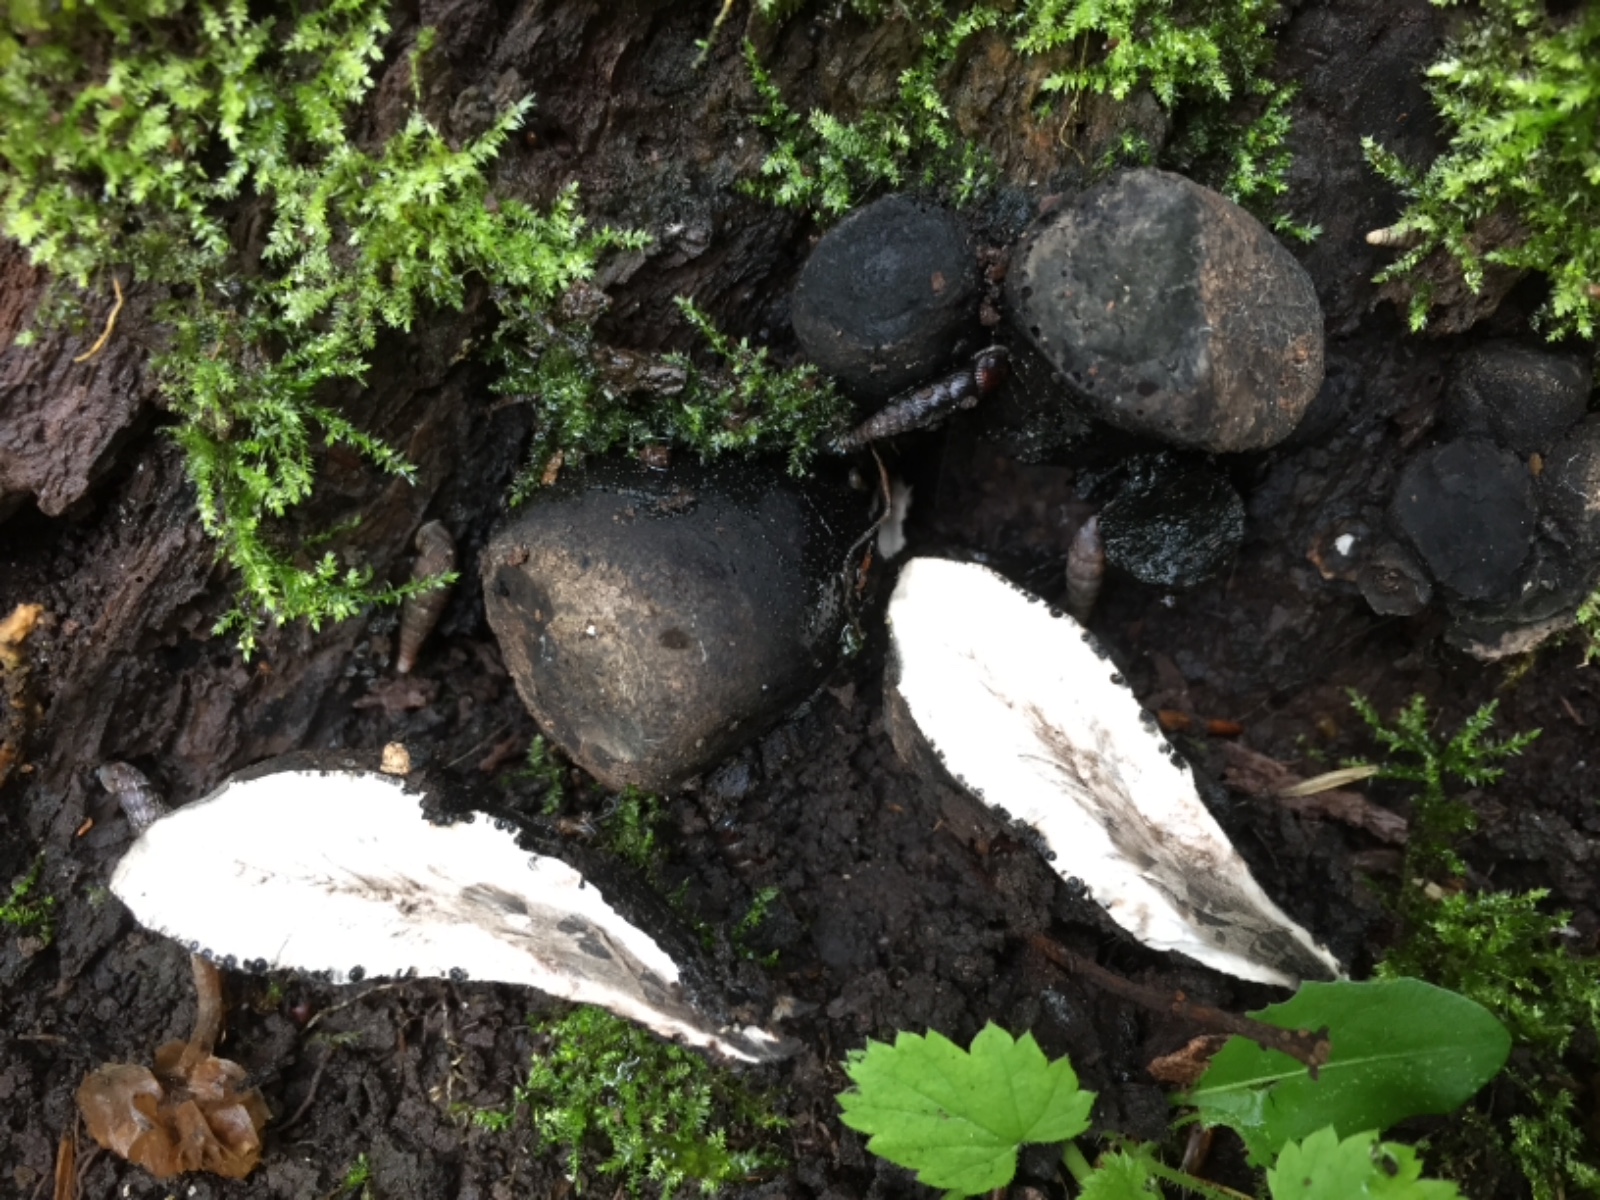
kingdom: Fungi
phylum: Ascomycota
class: Sordariomycetes
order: Xylariales
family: Xylariaceae
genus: Xylaria
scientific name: Xylaria polymorpha
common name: kølle-stødsvamp
